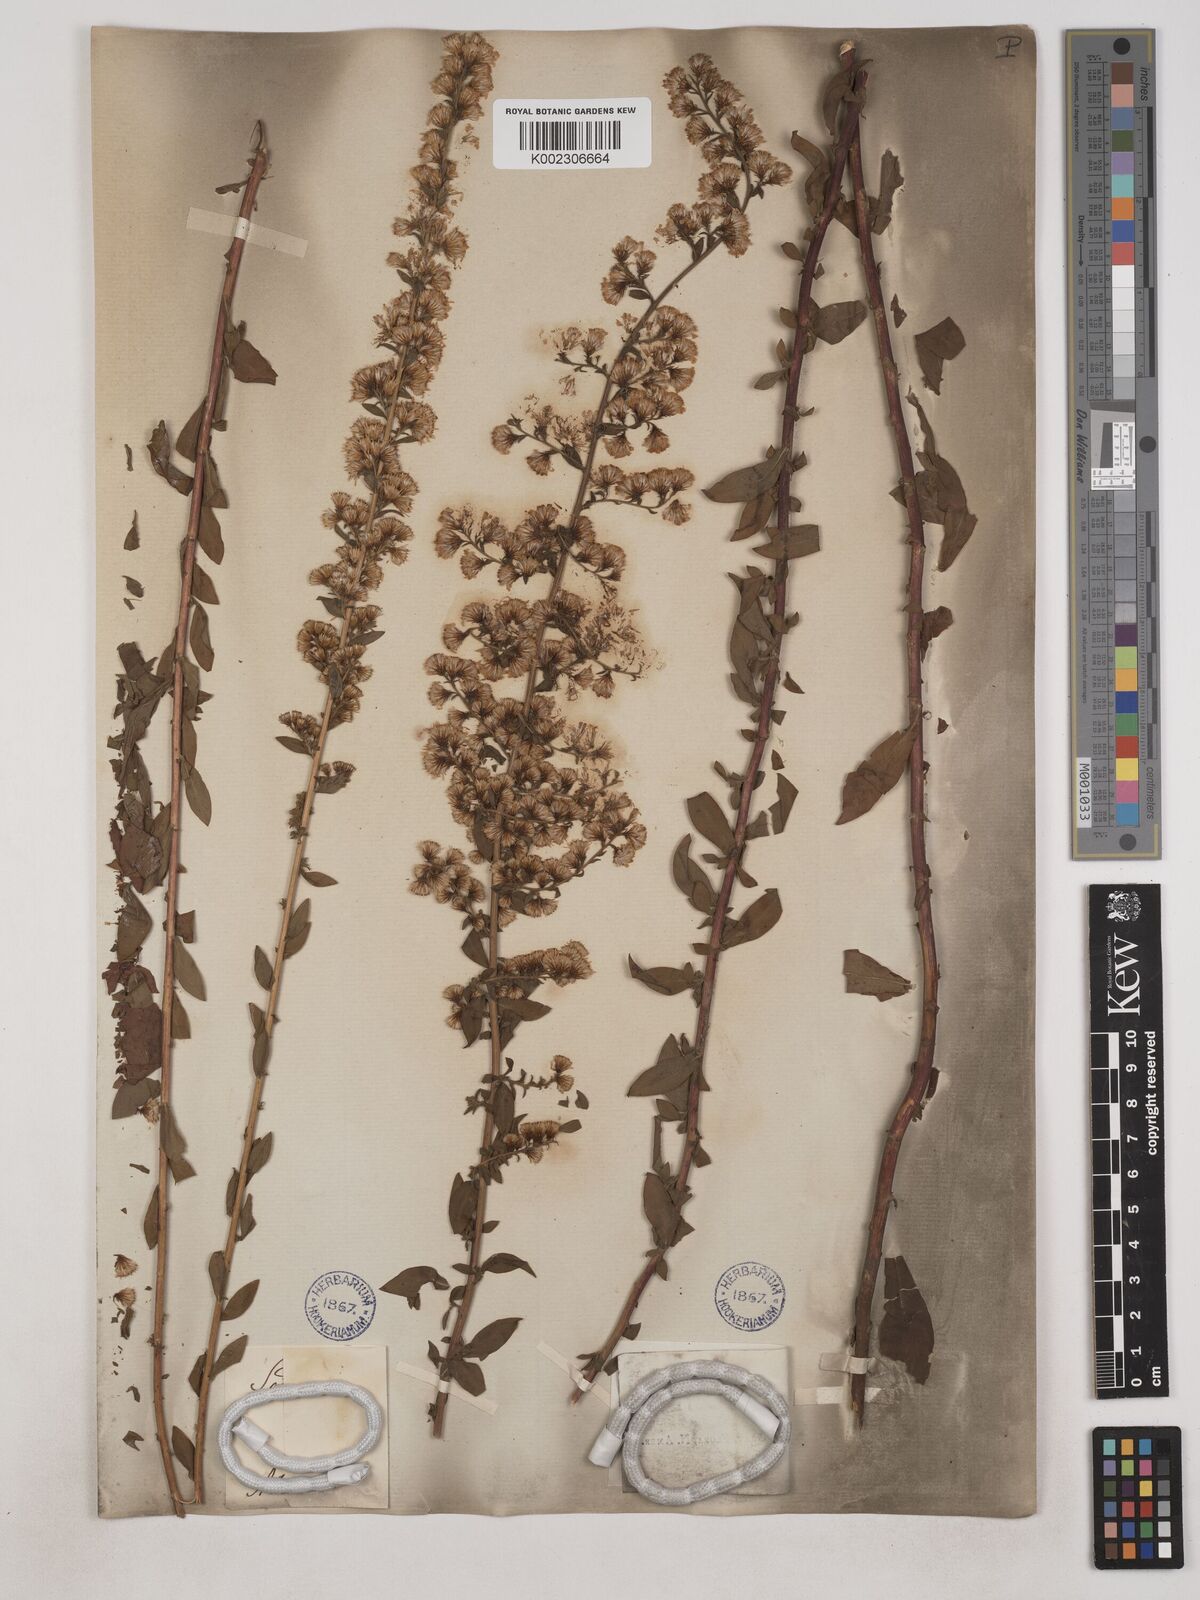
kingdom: Plantae
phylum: Tracheophyta
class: Magnoliopsida
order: Asterales
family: Asteraceae
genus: Solidago
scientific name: Solidago puberula
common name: Downy goldenrod
